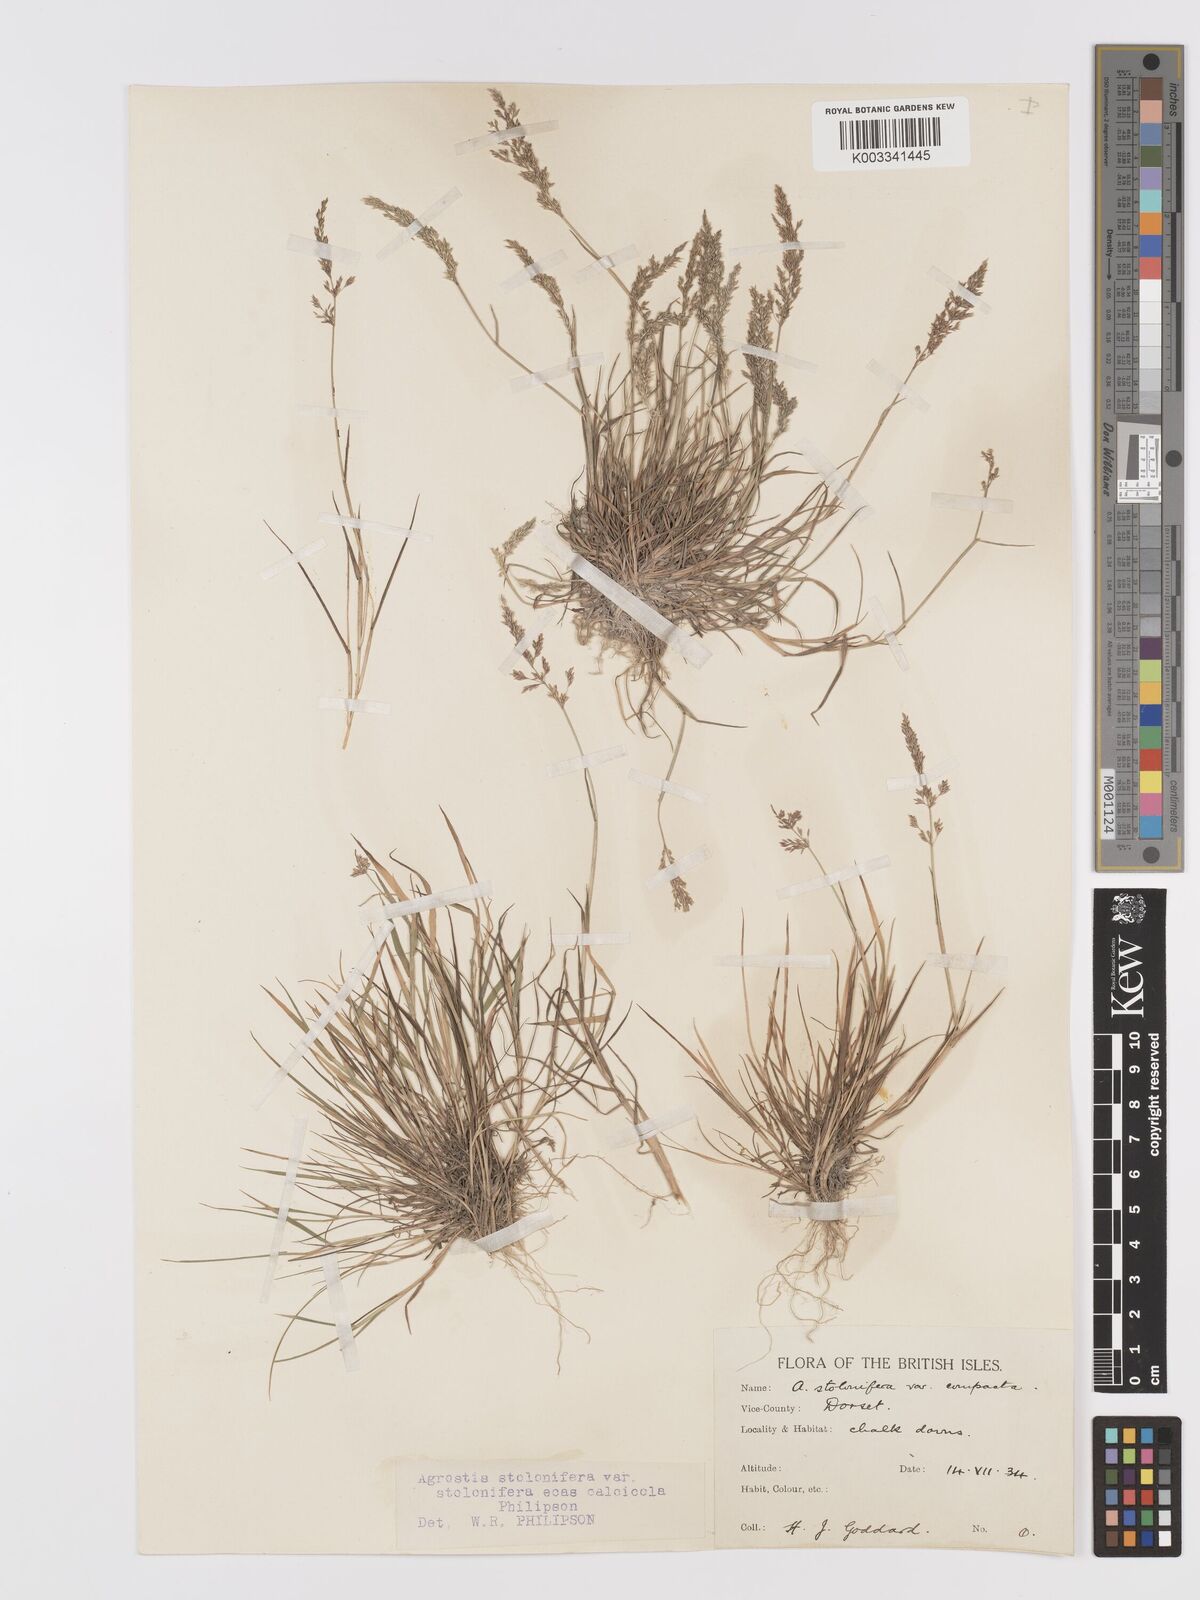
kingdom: Plantae
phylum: Tracheophyta
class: Liliopsida
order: Poales
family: Poaceae
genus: Agrostis
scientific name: Agrostis stolonifera
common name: Creeping bentgrass
